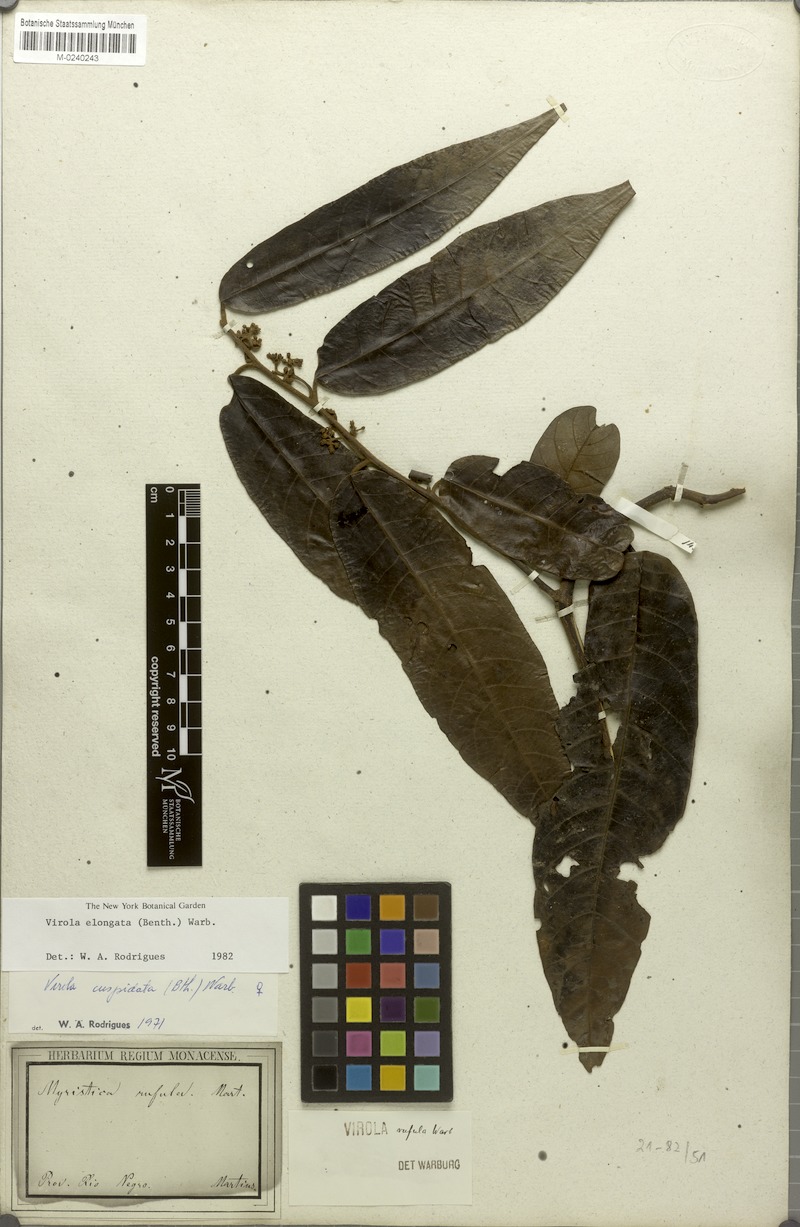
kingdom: Plantae
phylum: Tracheophyta
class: Magnoliopsida
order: Magnoliales
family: Myristicaceae
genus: Virola
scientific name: Virola elongata
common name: Sacred virola
